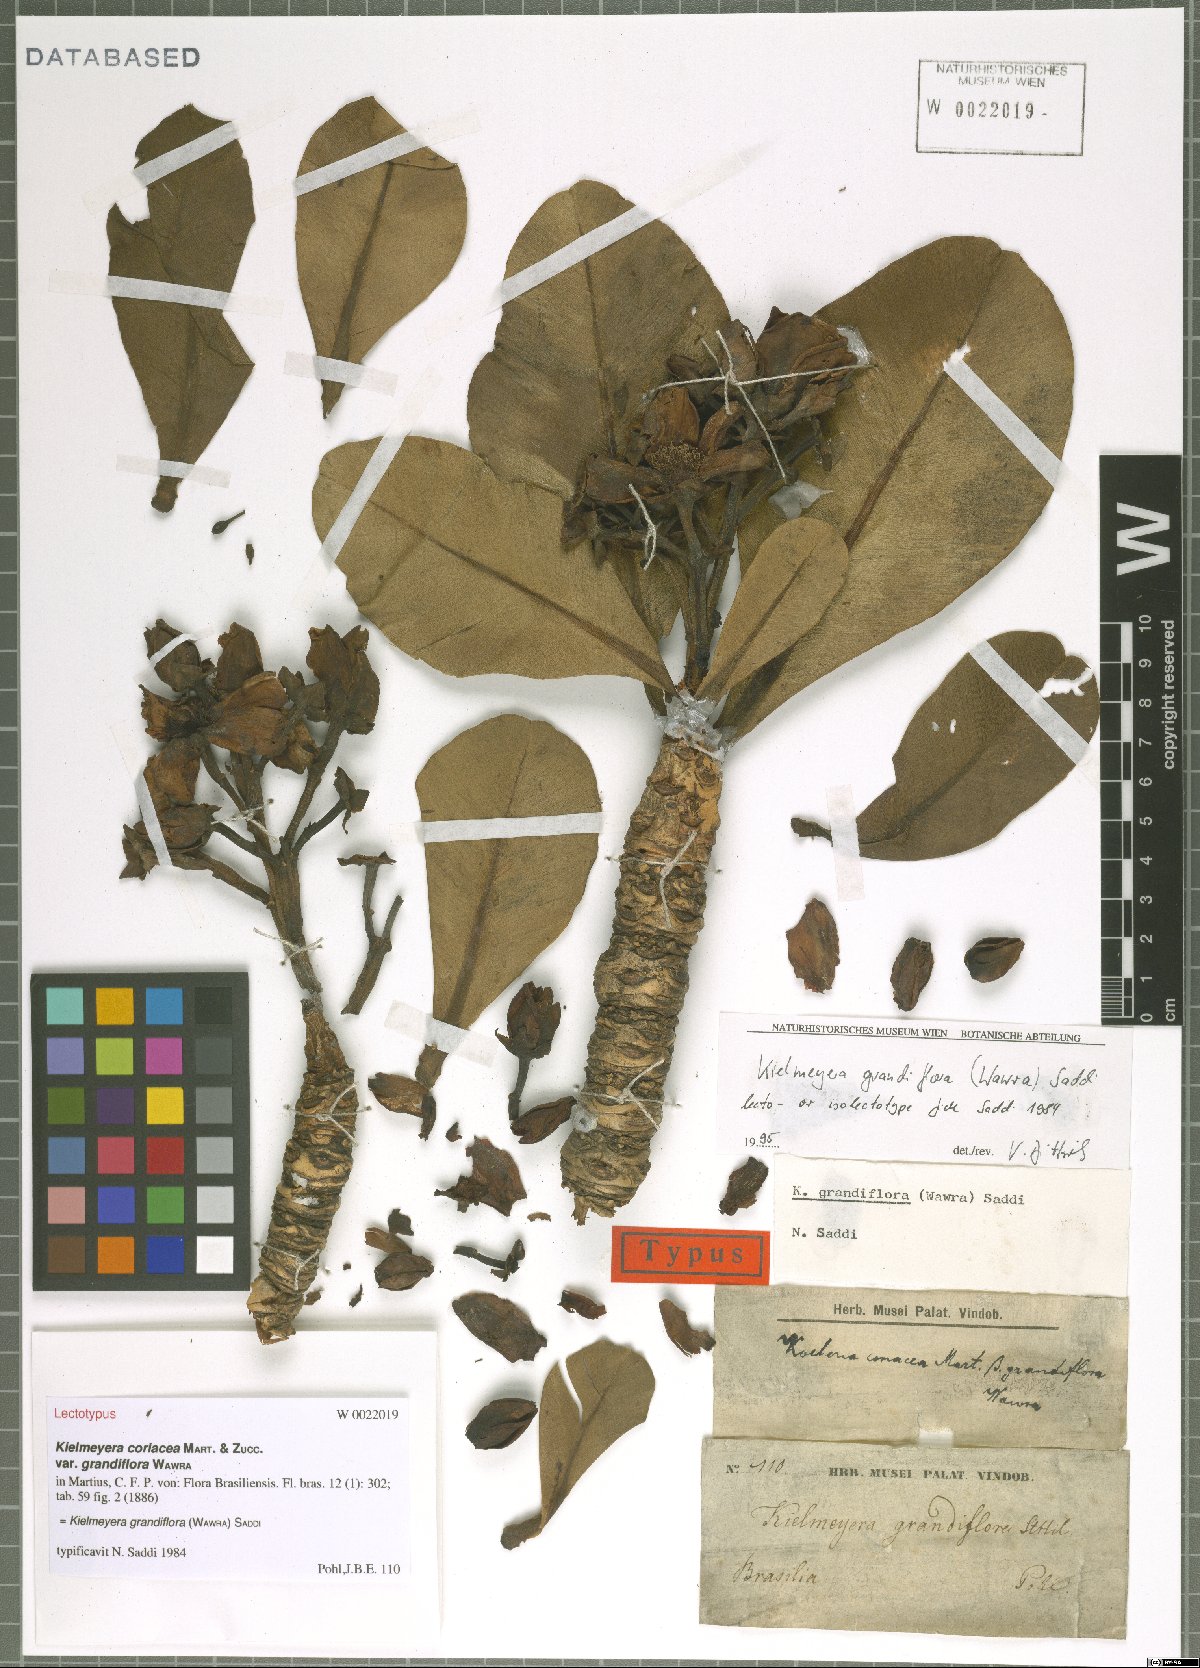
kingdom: Plantae
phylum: Tracheophyta
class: Magnoliopsida
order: Malpighiales
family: Calophyllaceae
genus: Kielmeyera
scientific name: Kielmeyera grandiflora
